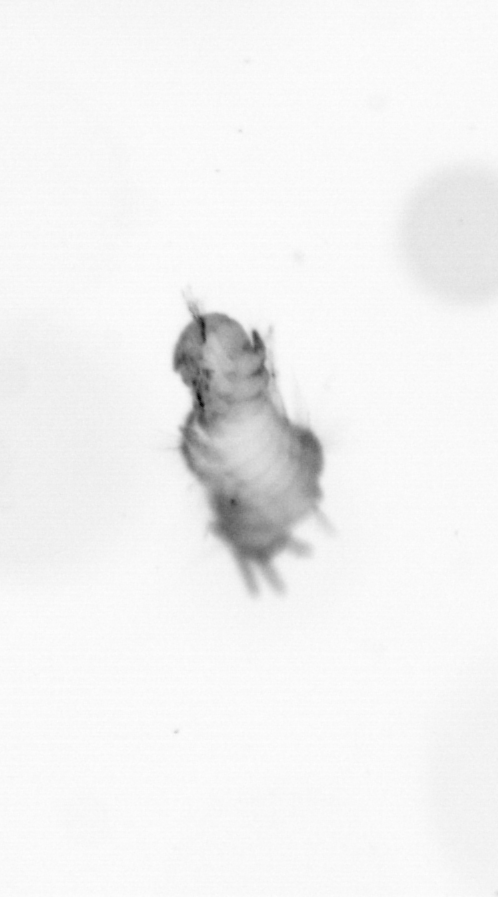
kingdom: Animalia
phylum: Annelida
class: Polychaeta
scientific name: Polychaeta
